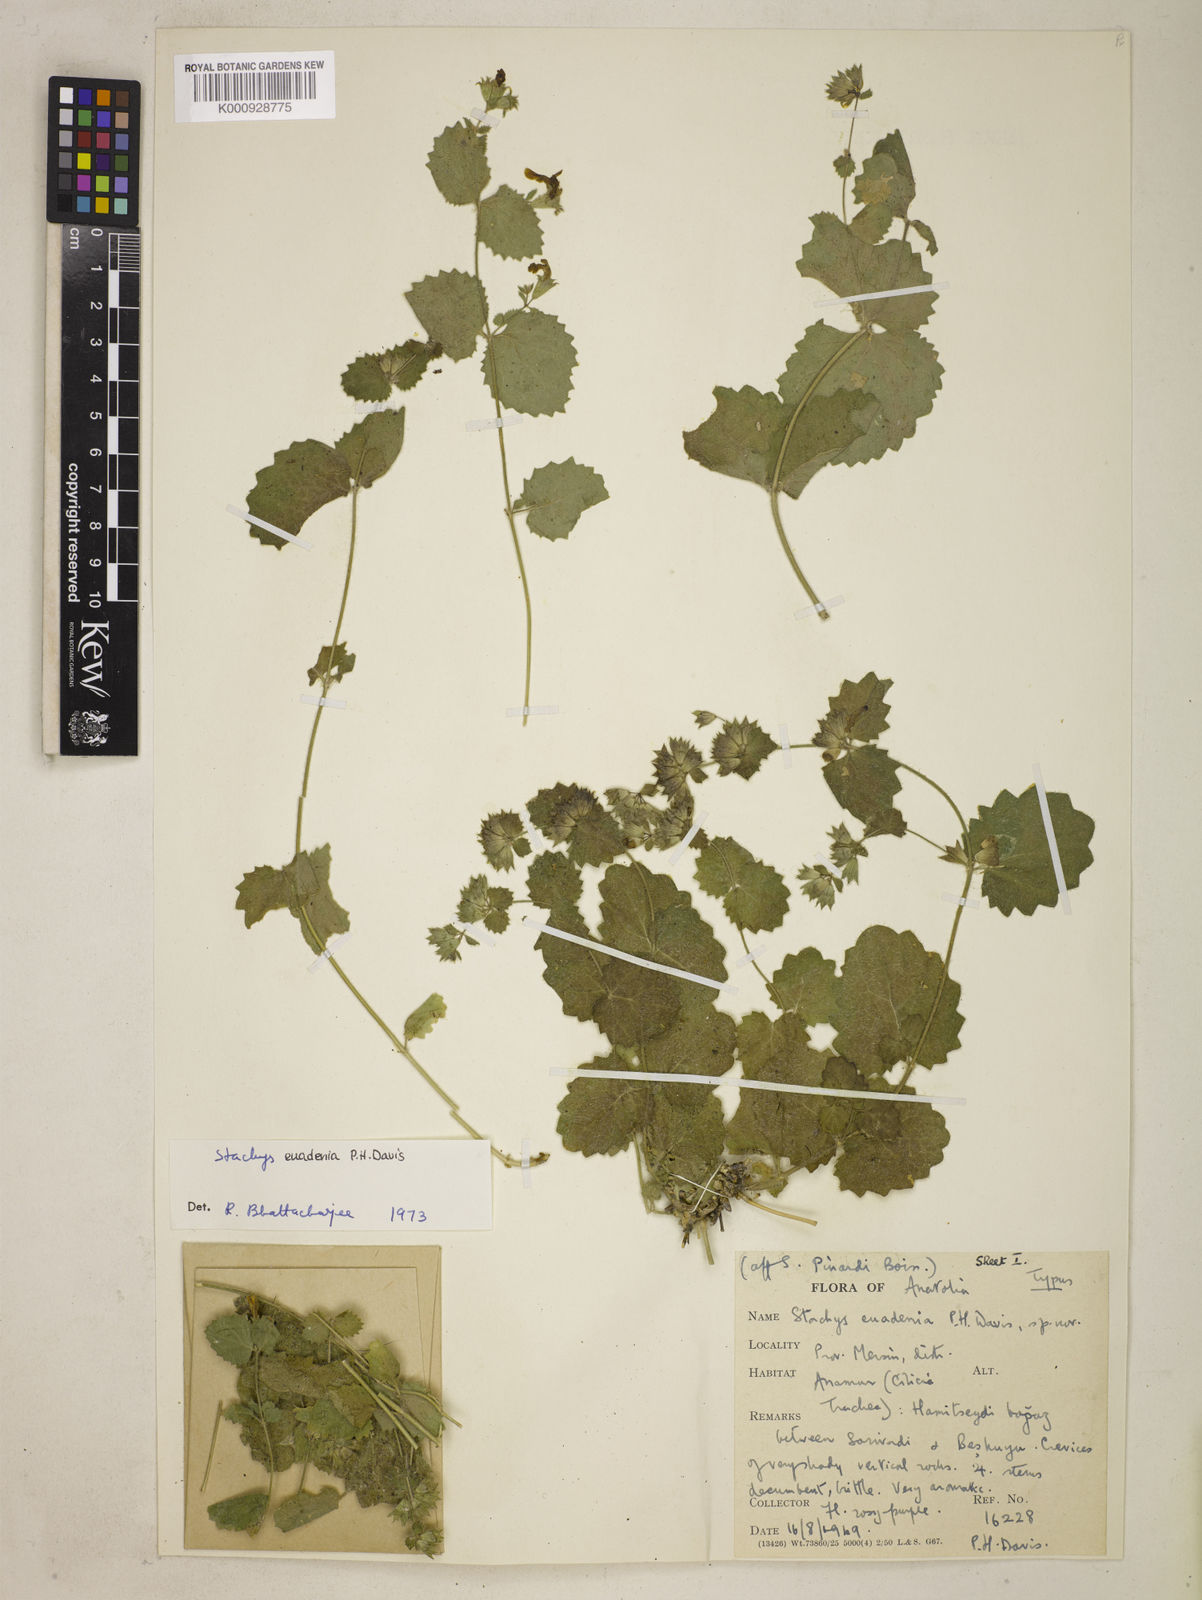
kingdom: Plantae
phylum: Tracheophyta
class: Magnoliopsida
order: Lamiales
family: Lamiaceae
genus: Stachys
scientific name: Stachys euadenia
